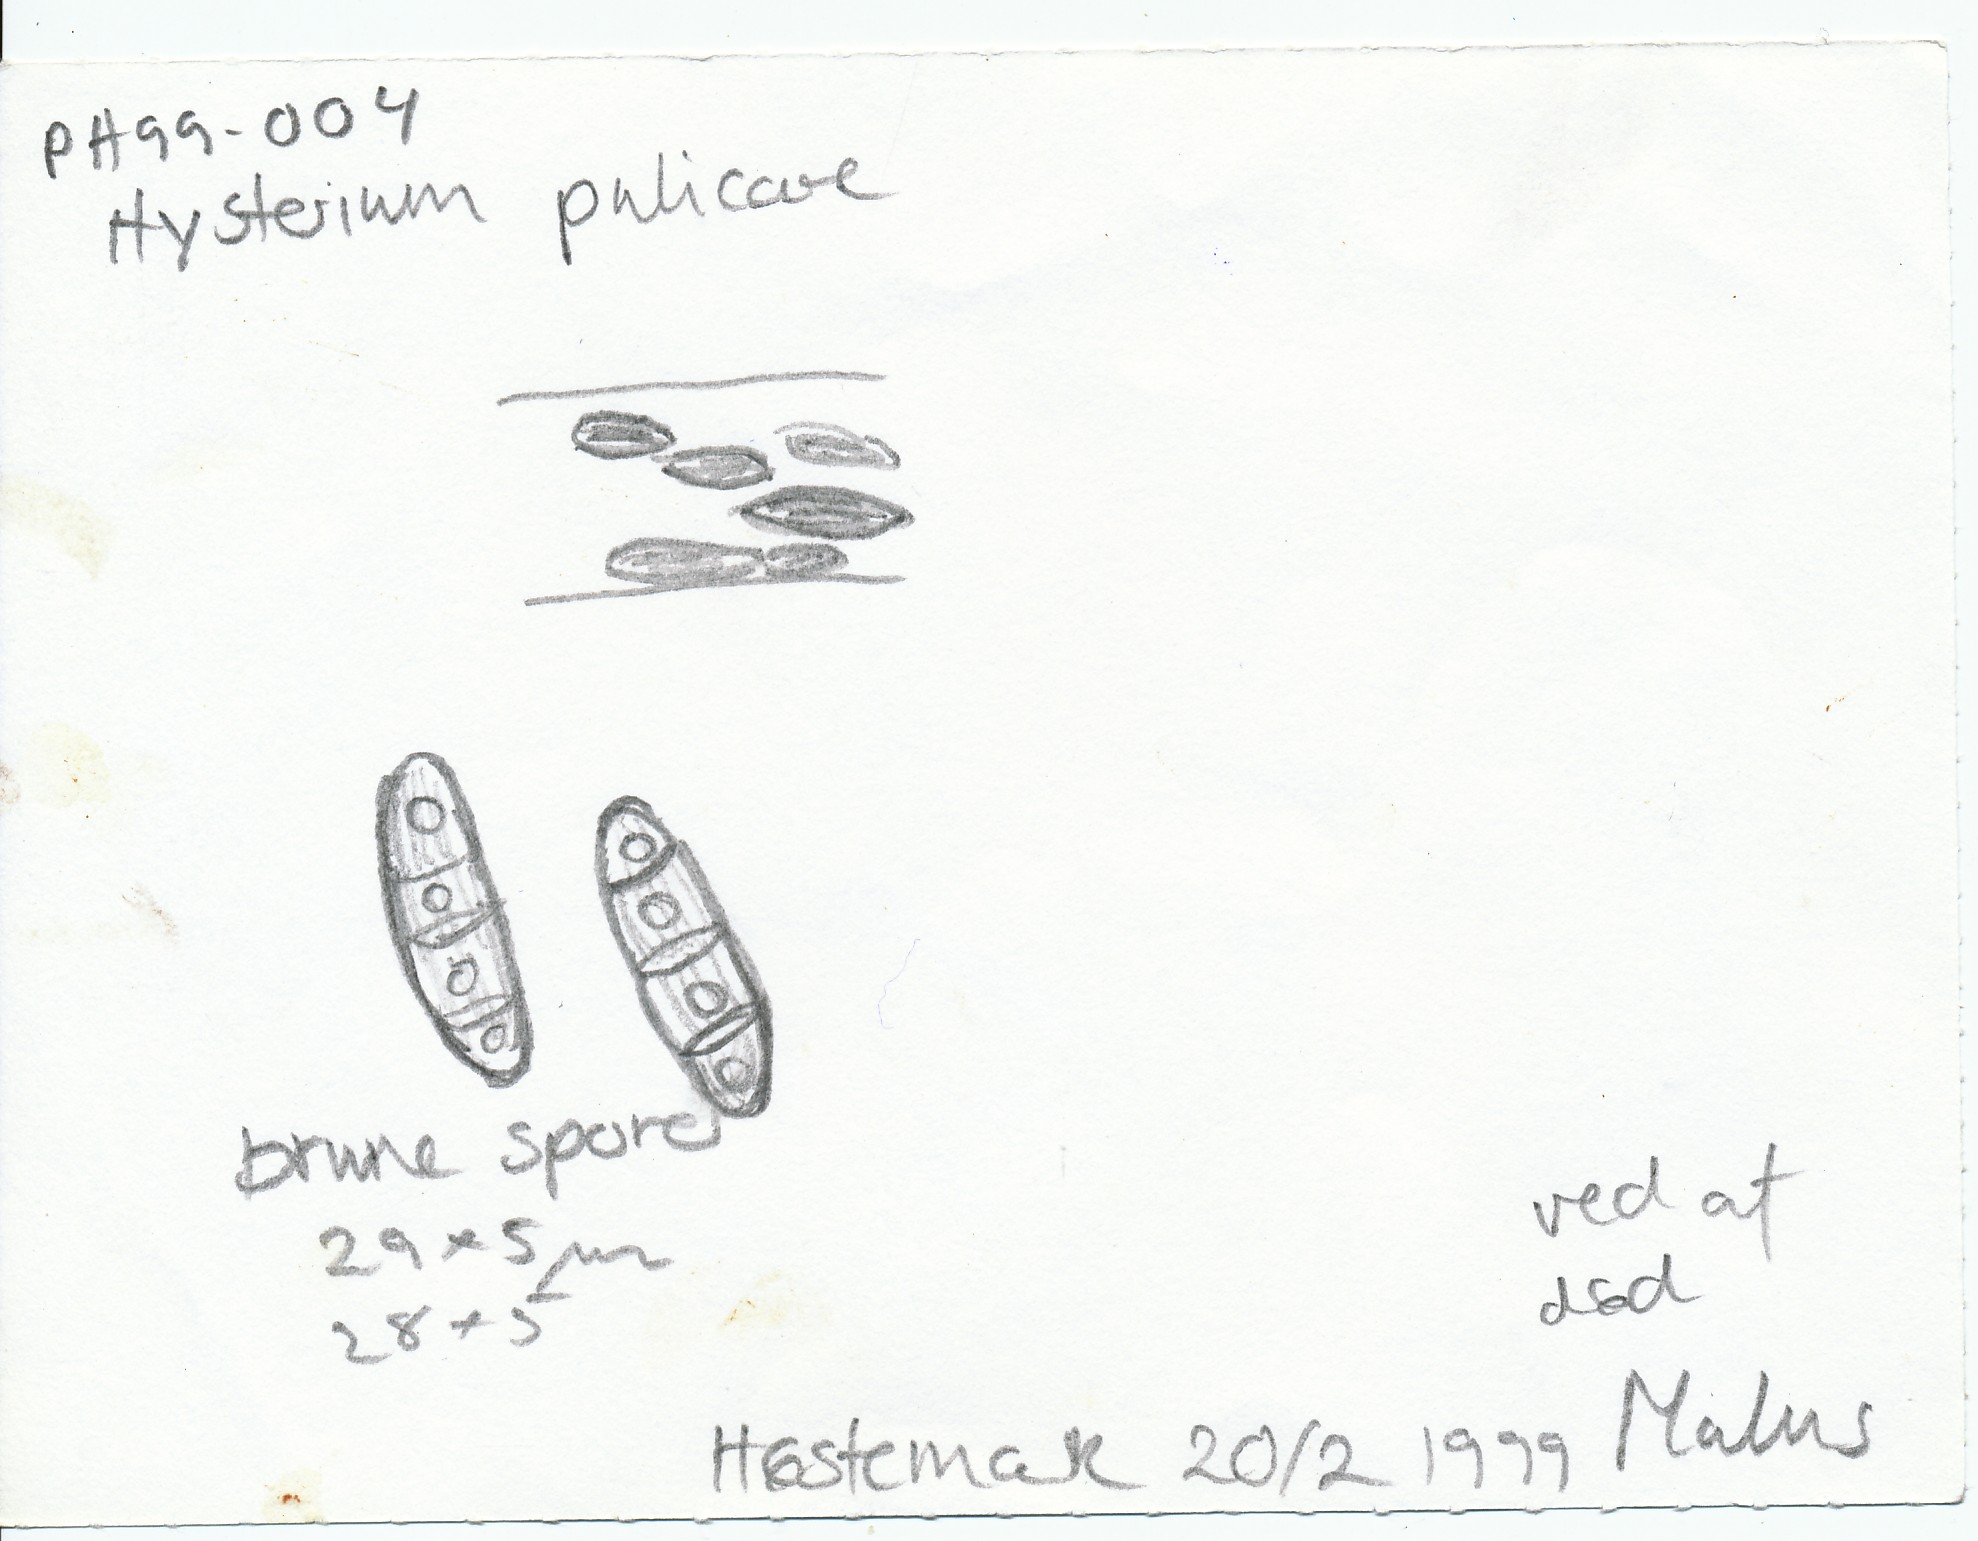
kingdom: Fungi
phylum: Ascomycota
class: Dothideomycetes
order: Hysteriales
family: Hysteriaceae
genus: Hysterium
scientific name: Hysterium pulicare
